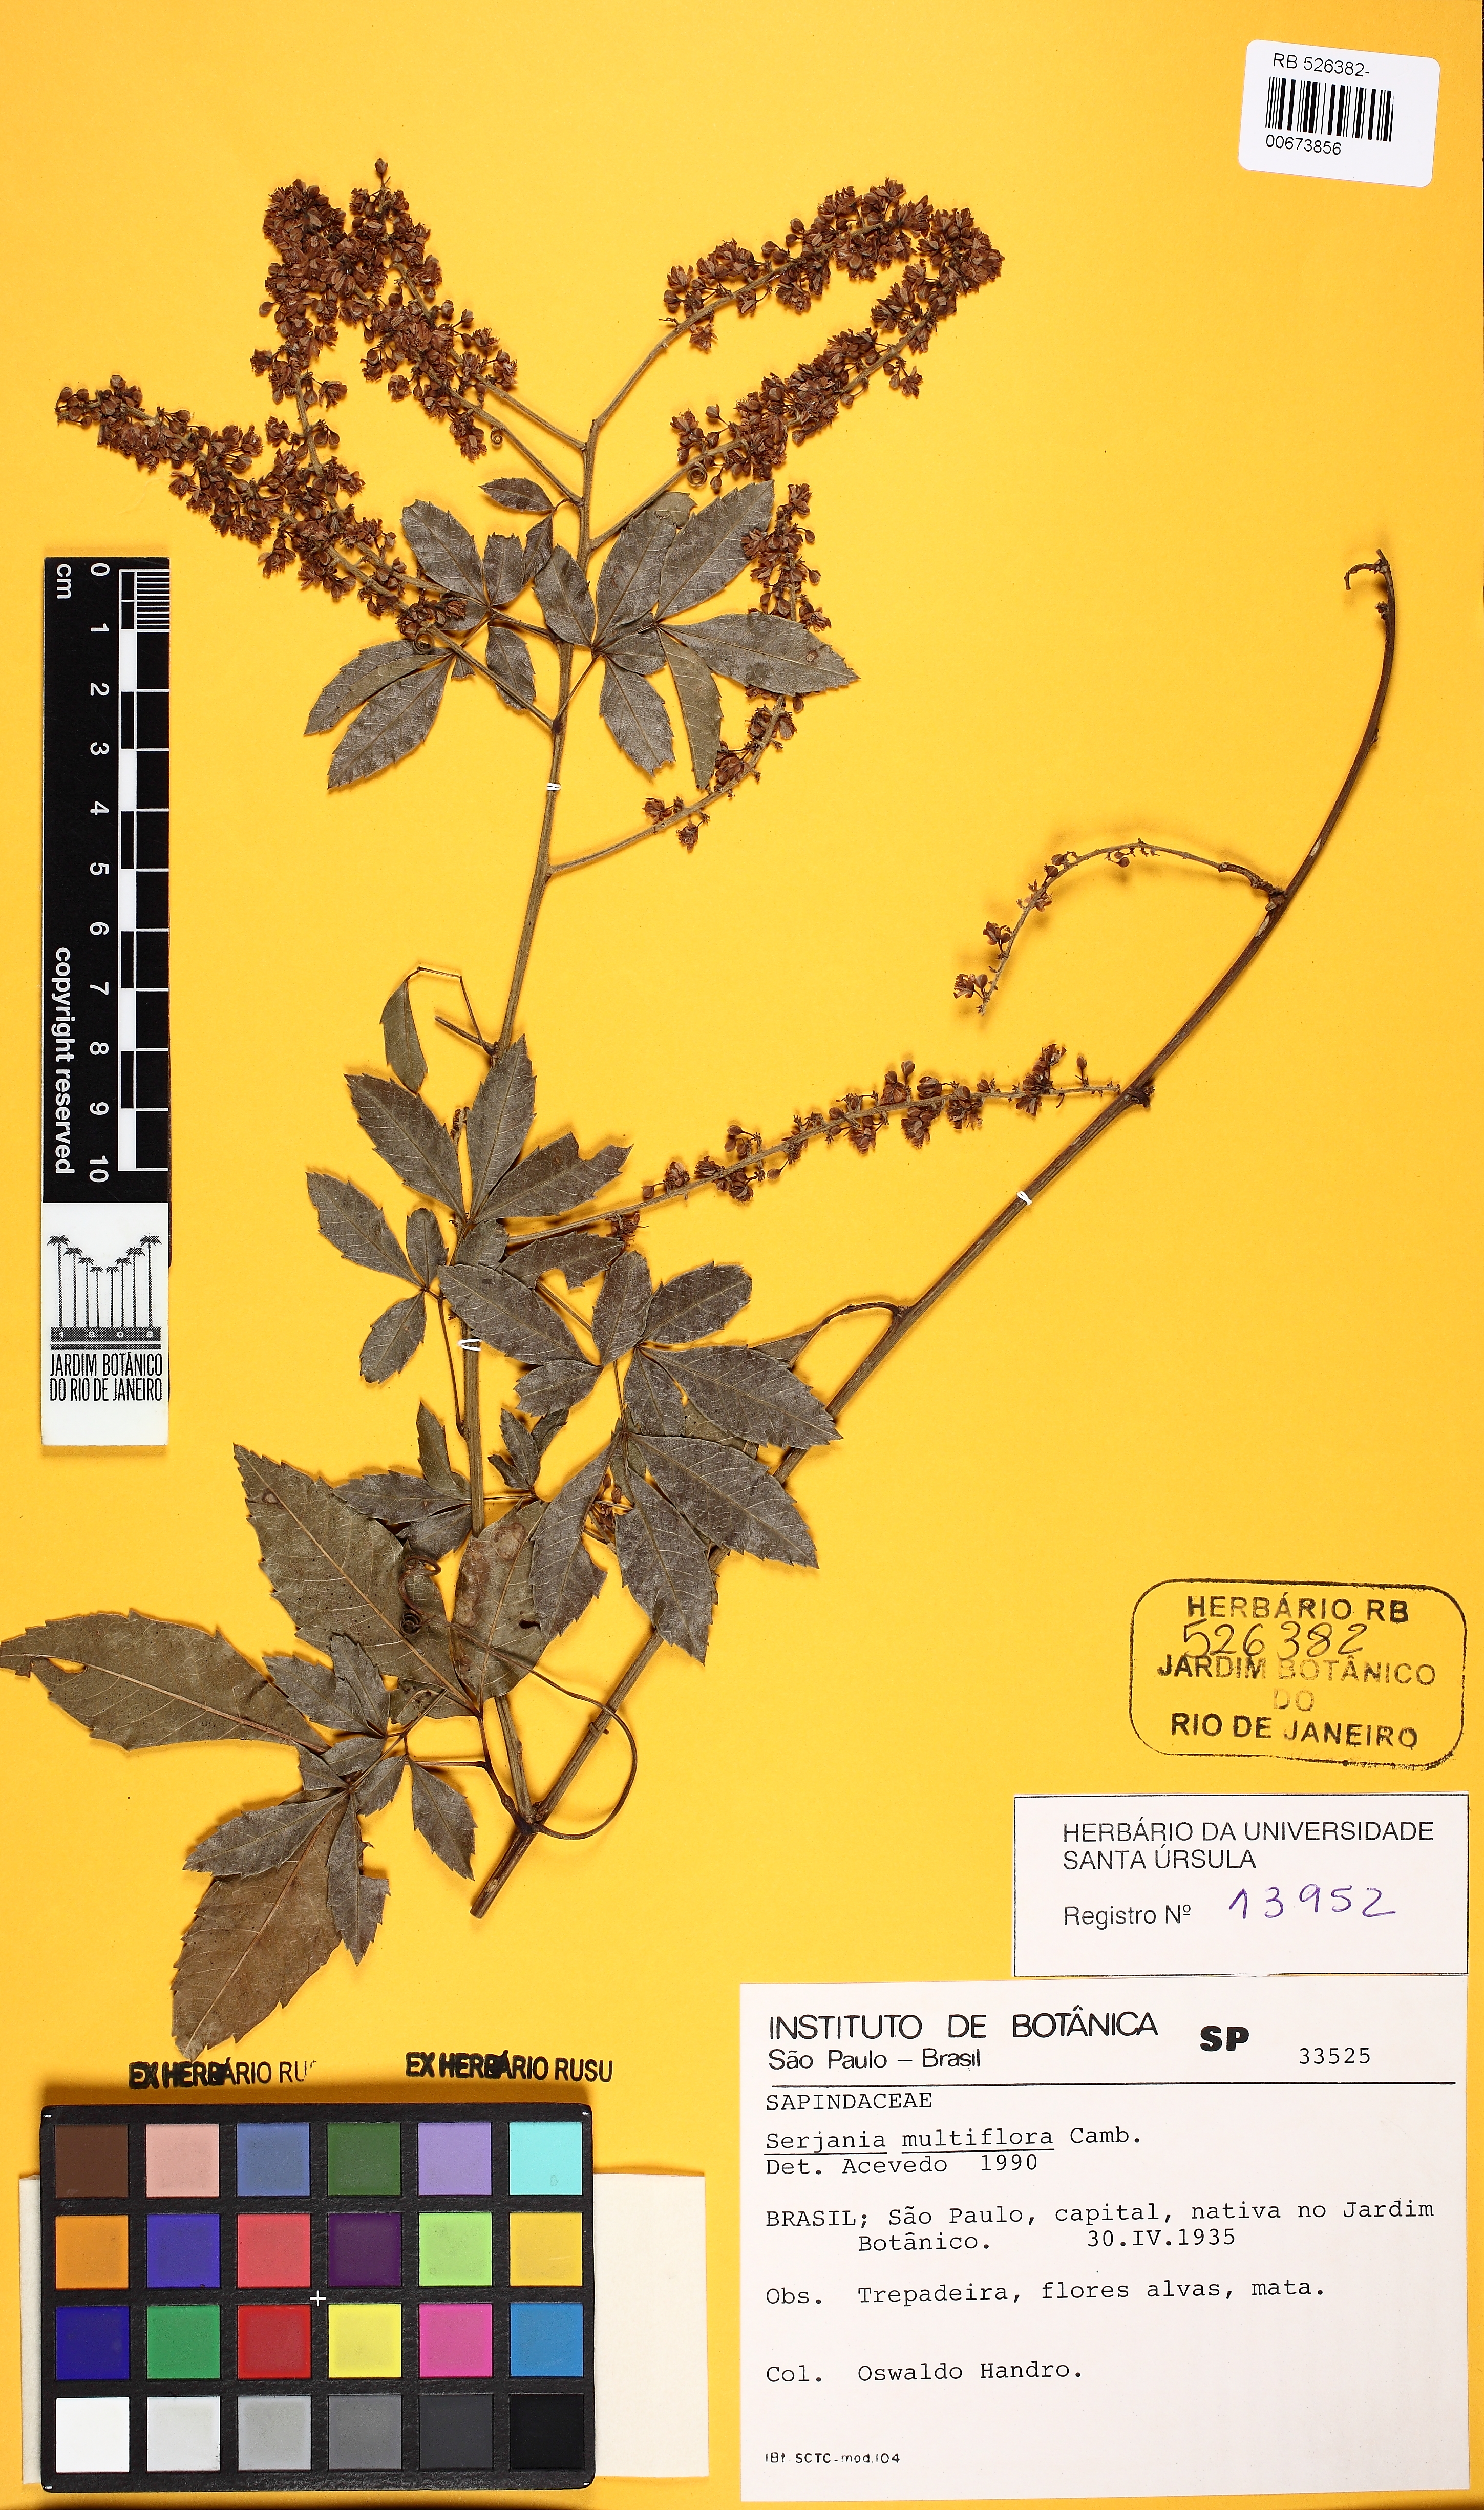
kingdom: Plantae
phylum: Tracheophyta
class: Magnoliopsida
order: Sapindales
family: Sapindaceae
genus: Serjania
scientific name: Serjania multiflora
